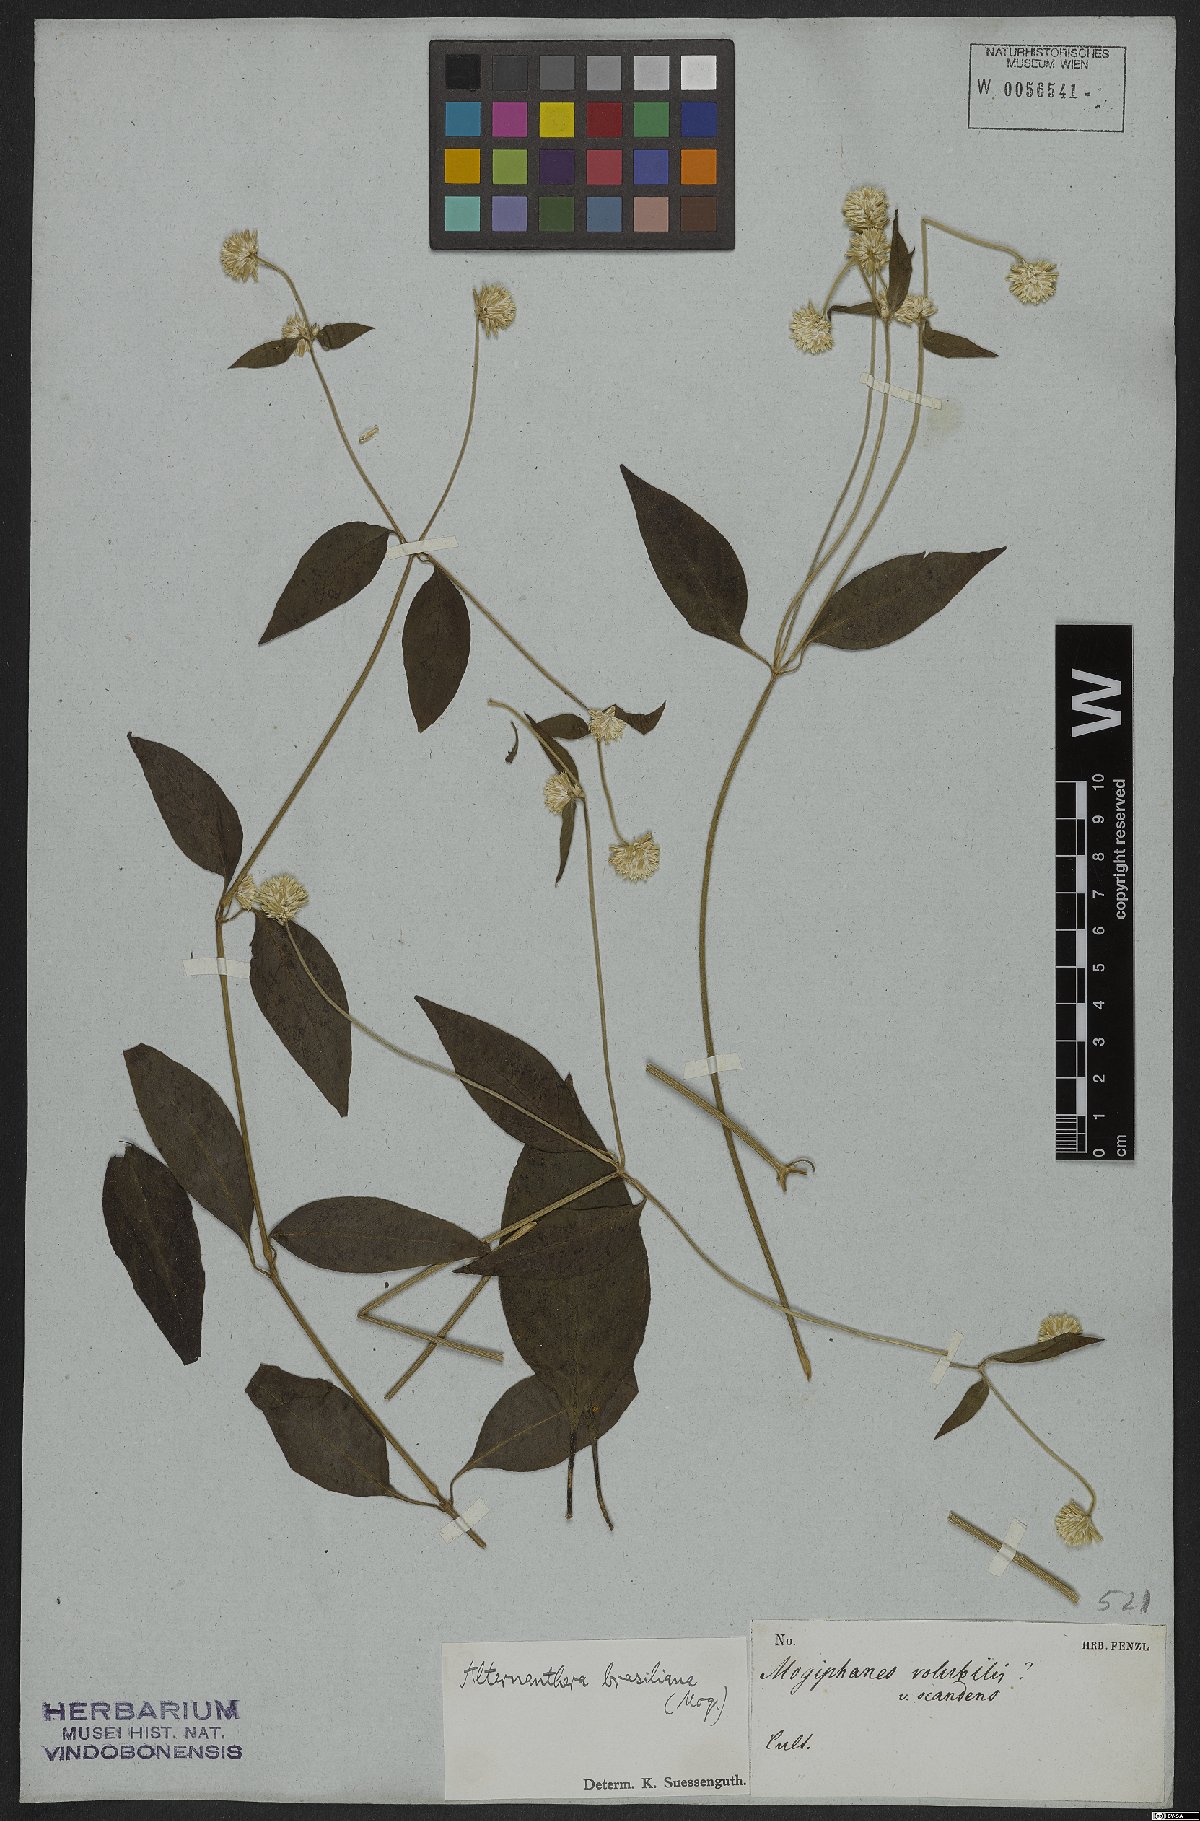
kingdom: Plantae
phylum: Tracheophyta
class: Magnoliopsida
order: Caryophyllales
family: Amaranthaceae
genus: Alternanthera
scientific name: Alternanthera brasiliana
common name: Brazilian joyweed
